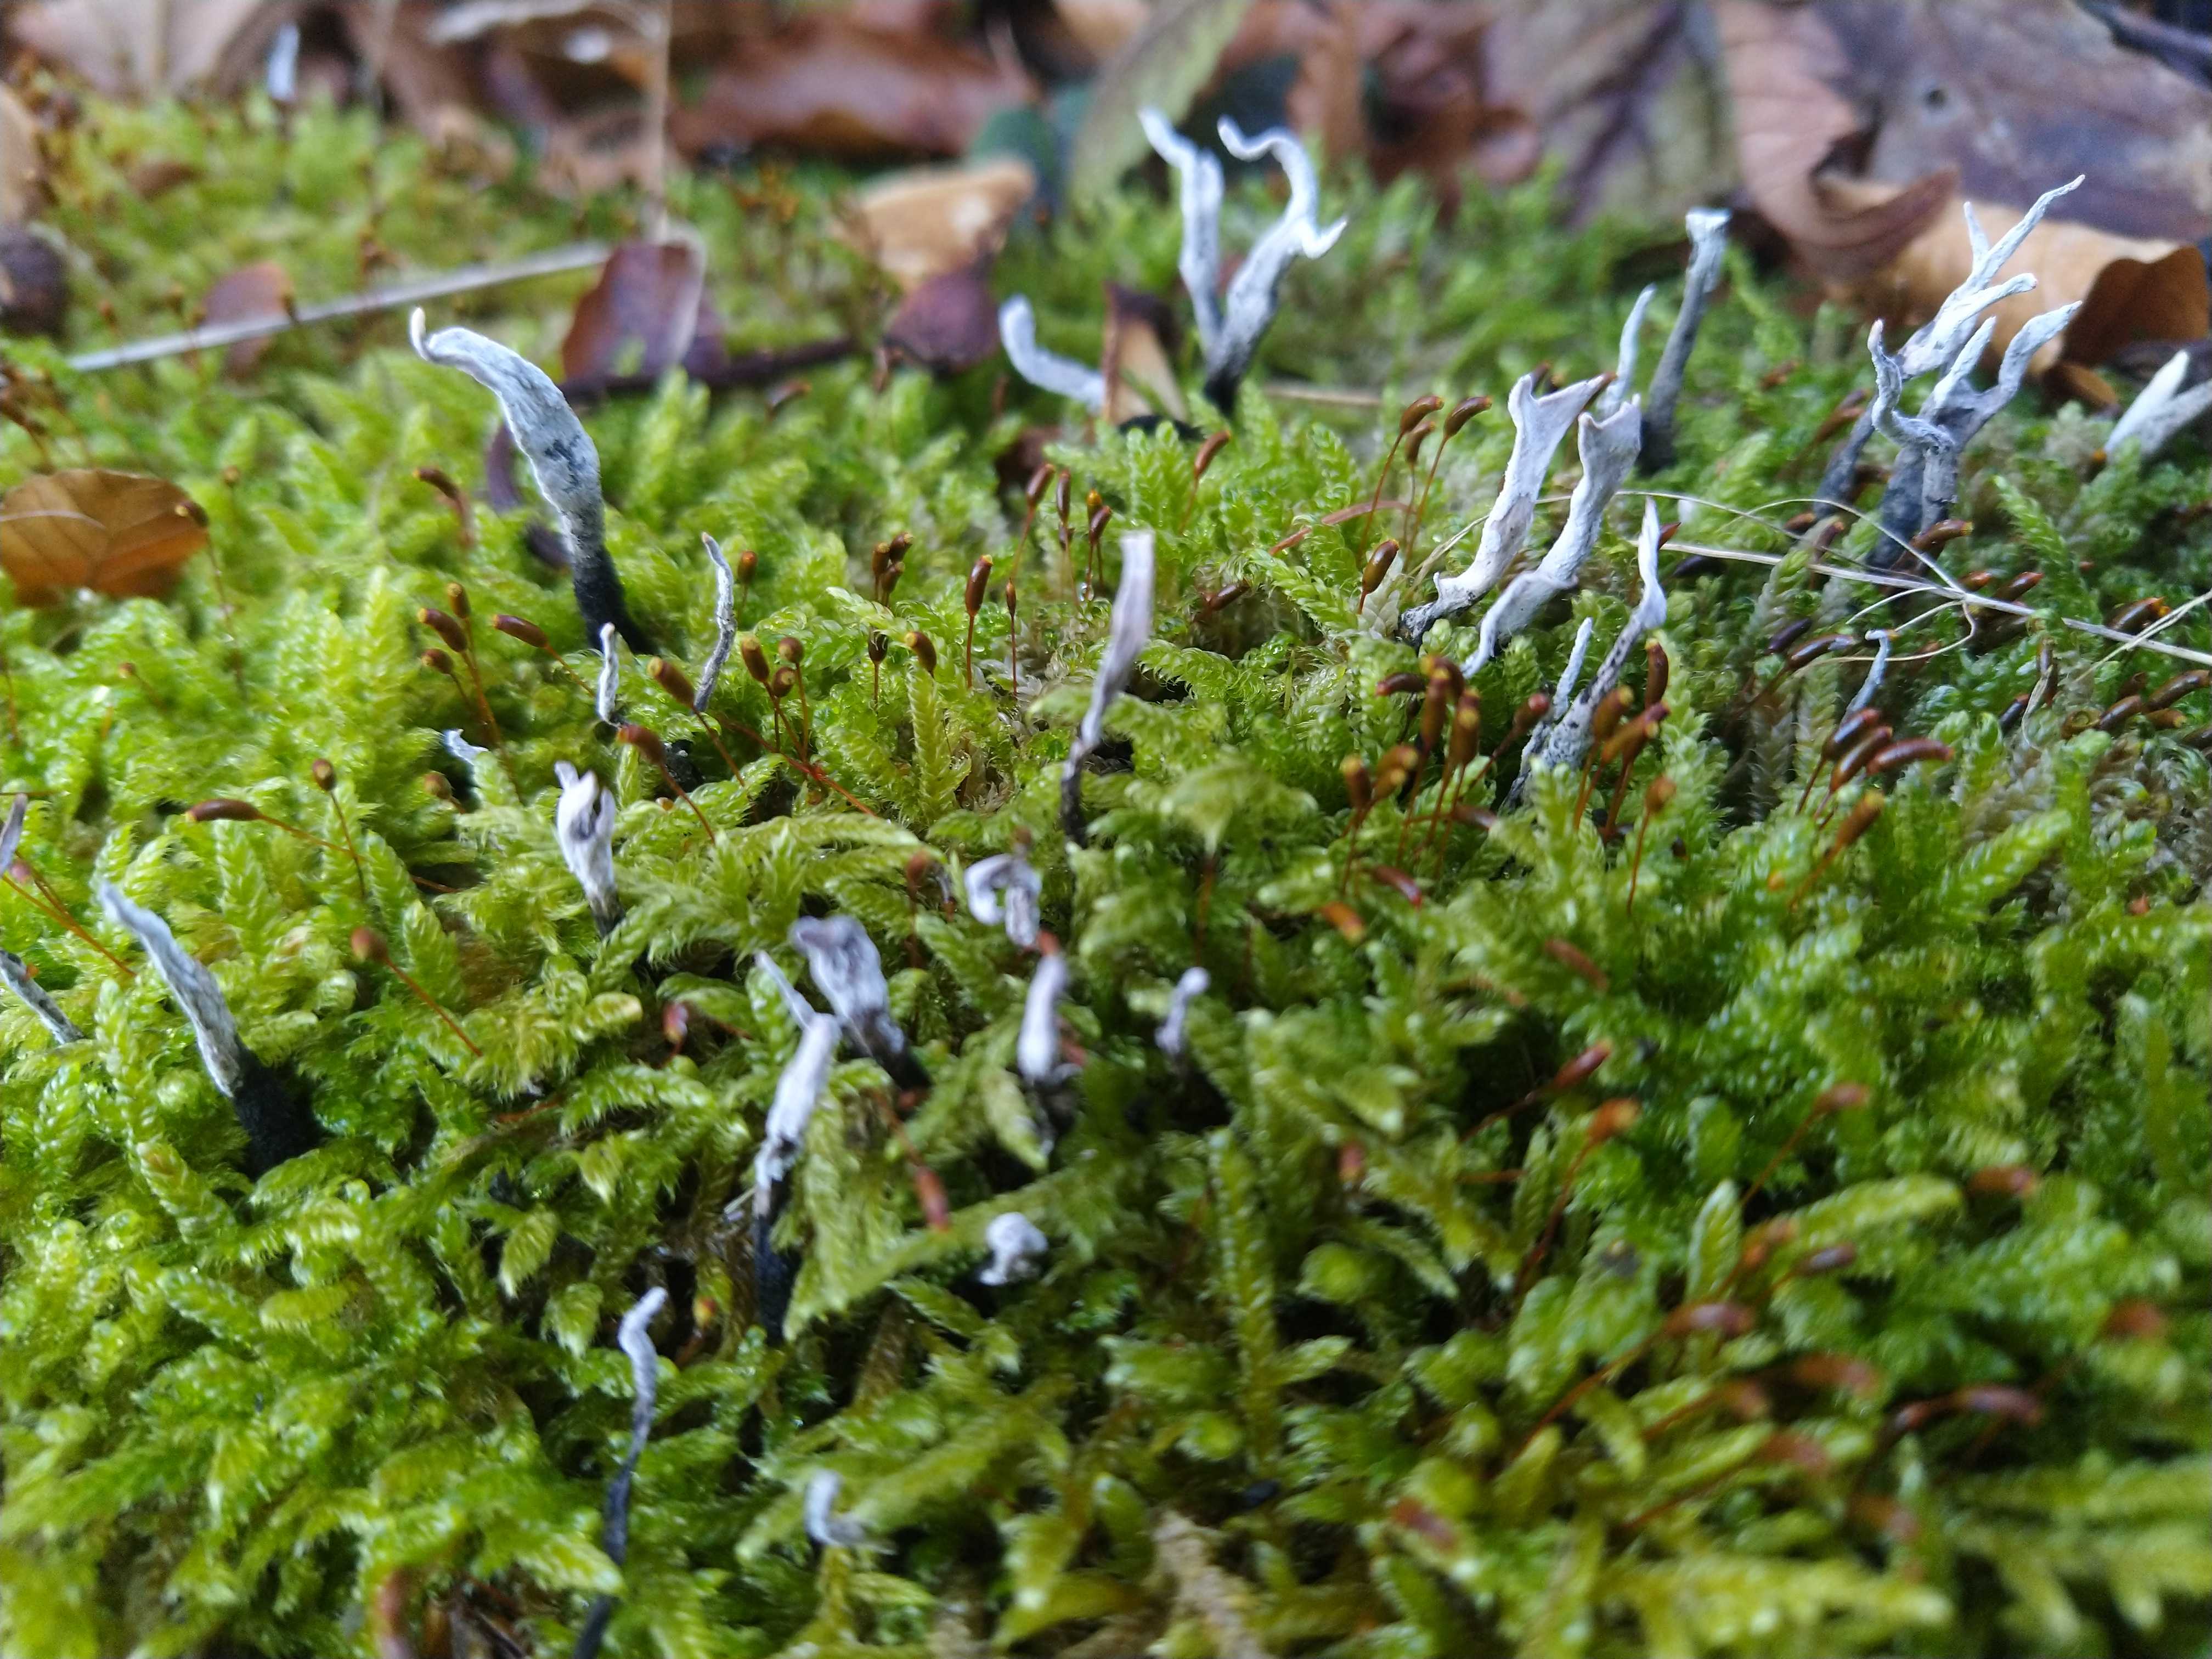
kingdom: Fungi
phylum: Ascomycota
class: Sordariomycetes
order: Xylariales
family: Xylariaceae
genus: Xylaria
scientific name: Xylaria hypoxylon
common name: grenet stødsvamp
